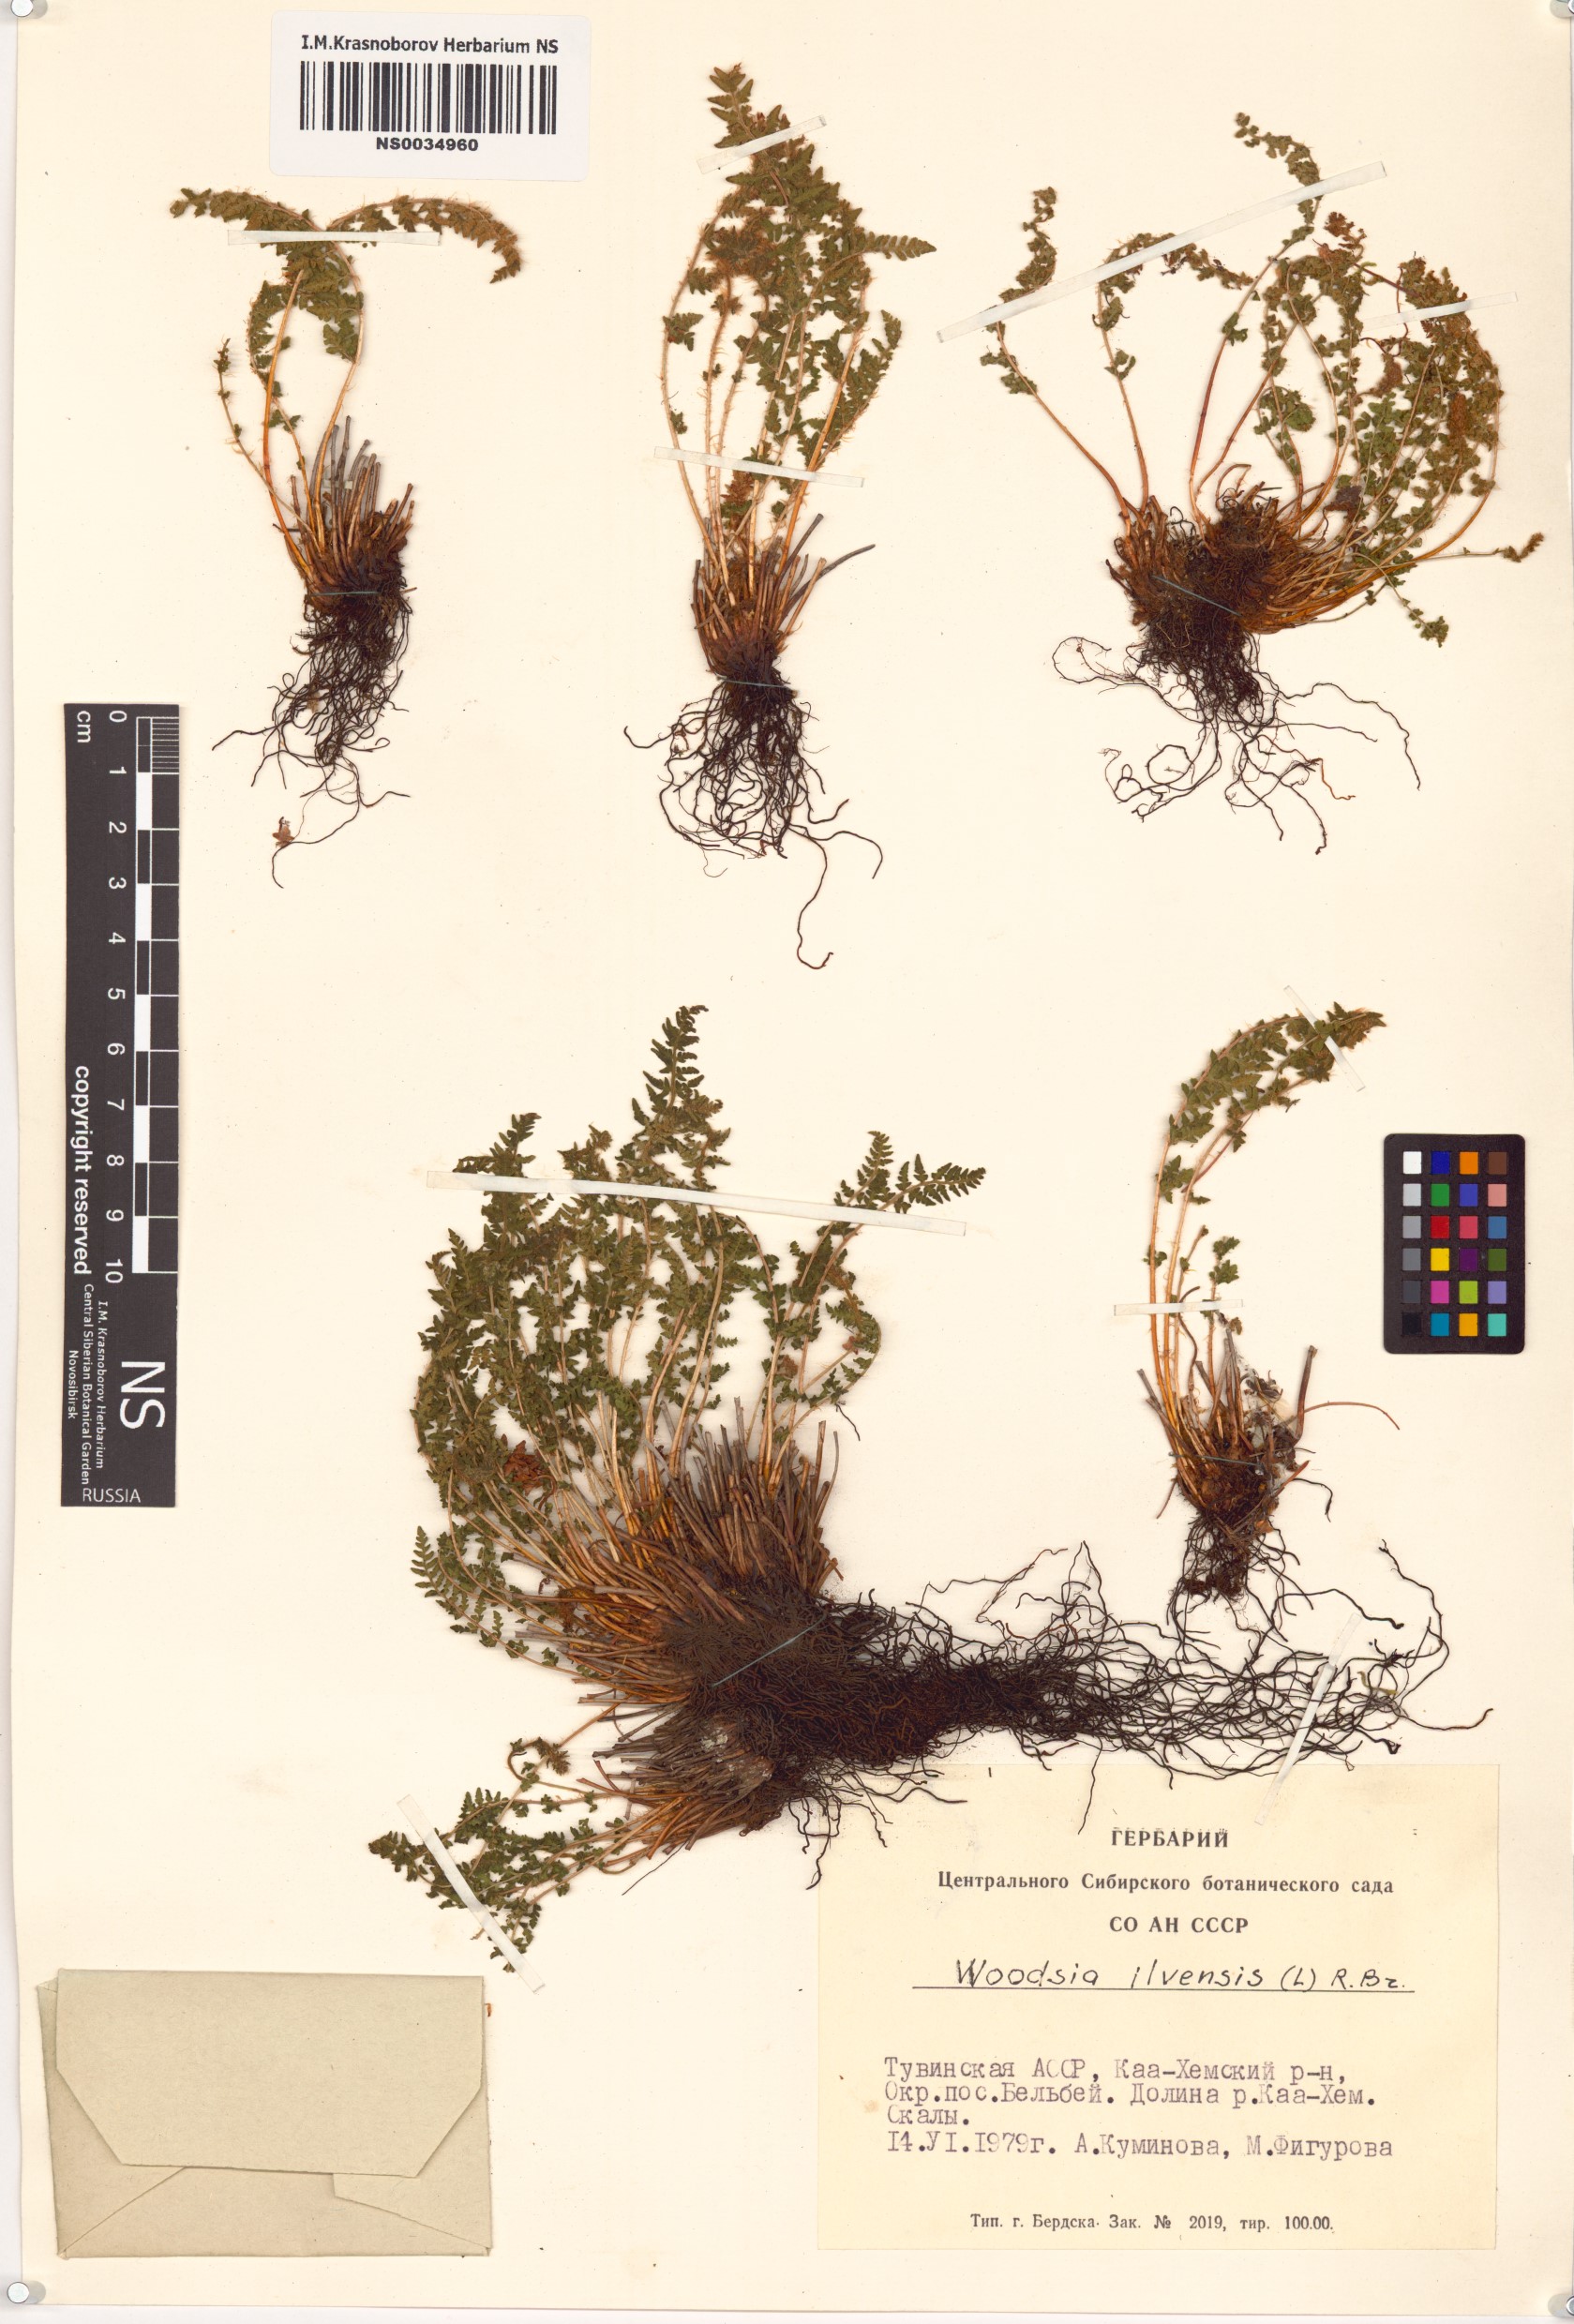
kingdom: Plantae
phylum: Tracheophyta
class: Polypodiopsida
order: Polypodiales
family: Woodsiaceae
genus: Woodsia
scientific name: Woodsia ilvensis
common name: Fragrant woodsia
